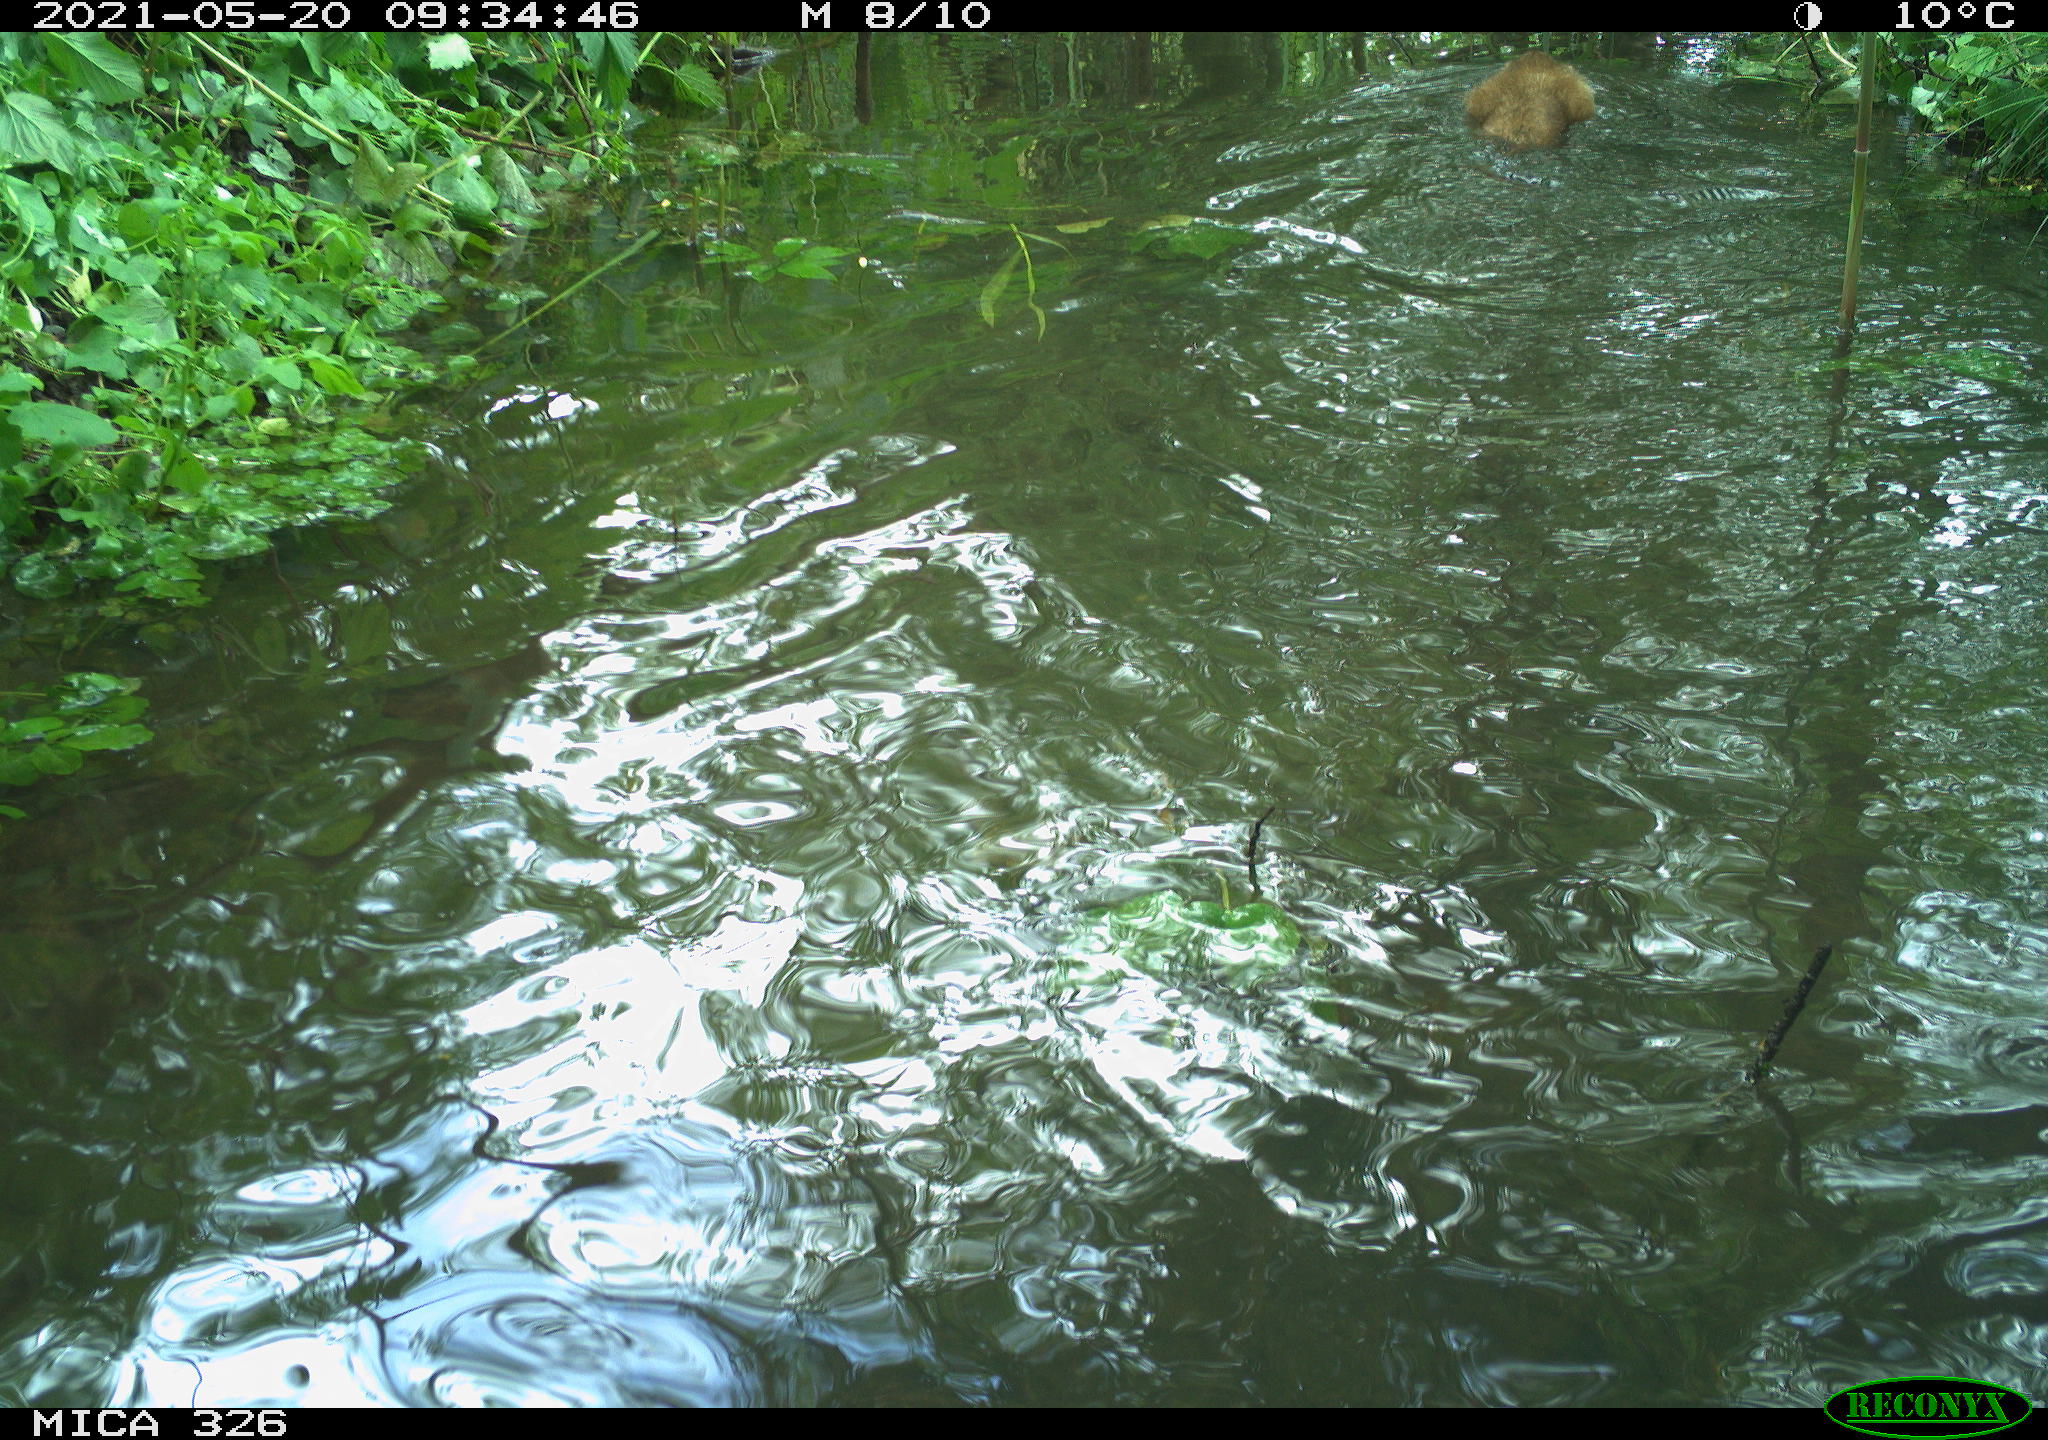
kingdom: Animalia
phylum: Chordata
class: Mammalia
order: Rodentia
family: Cricetidae
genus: Ondatra
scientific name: Ondatra zibethicus
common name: Muskrat
